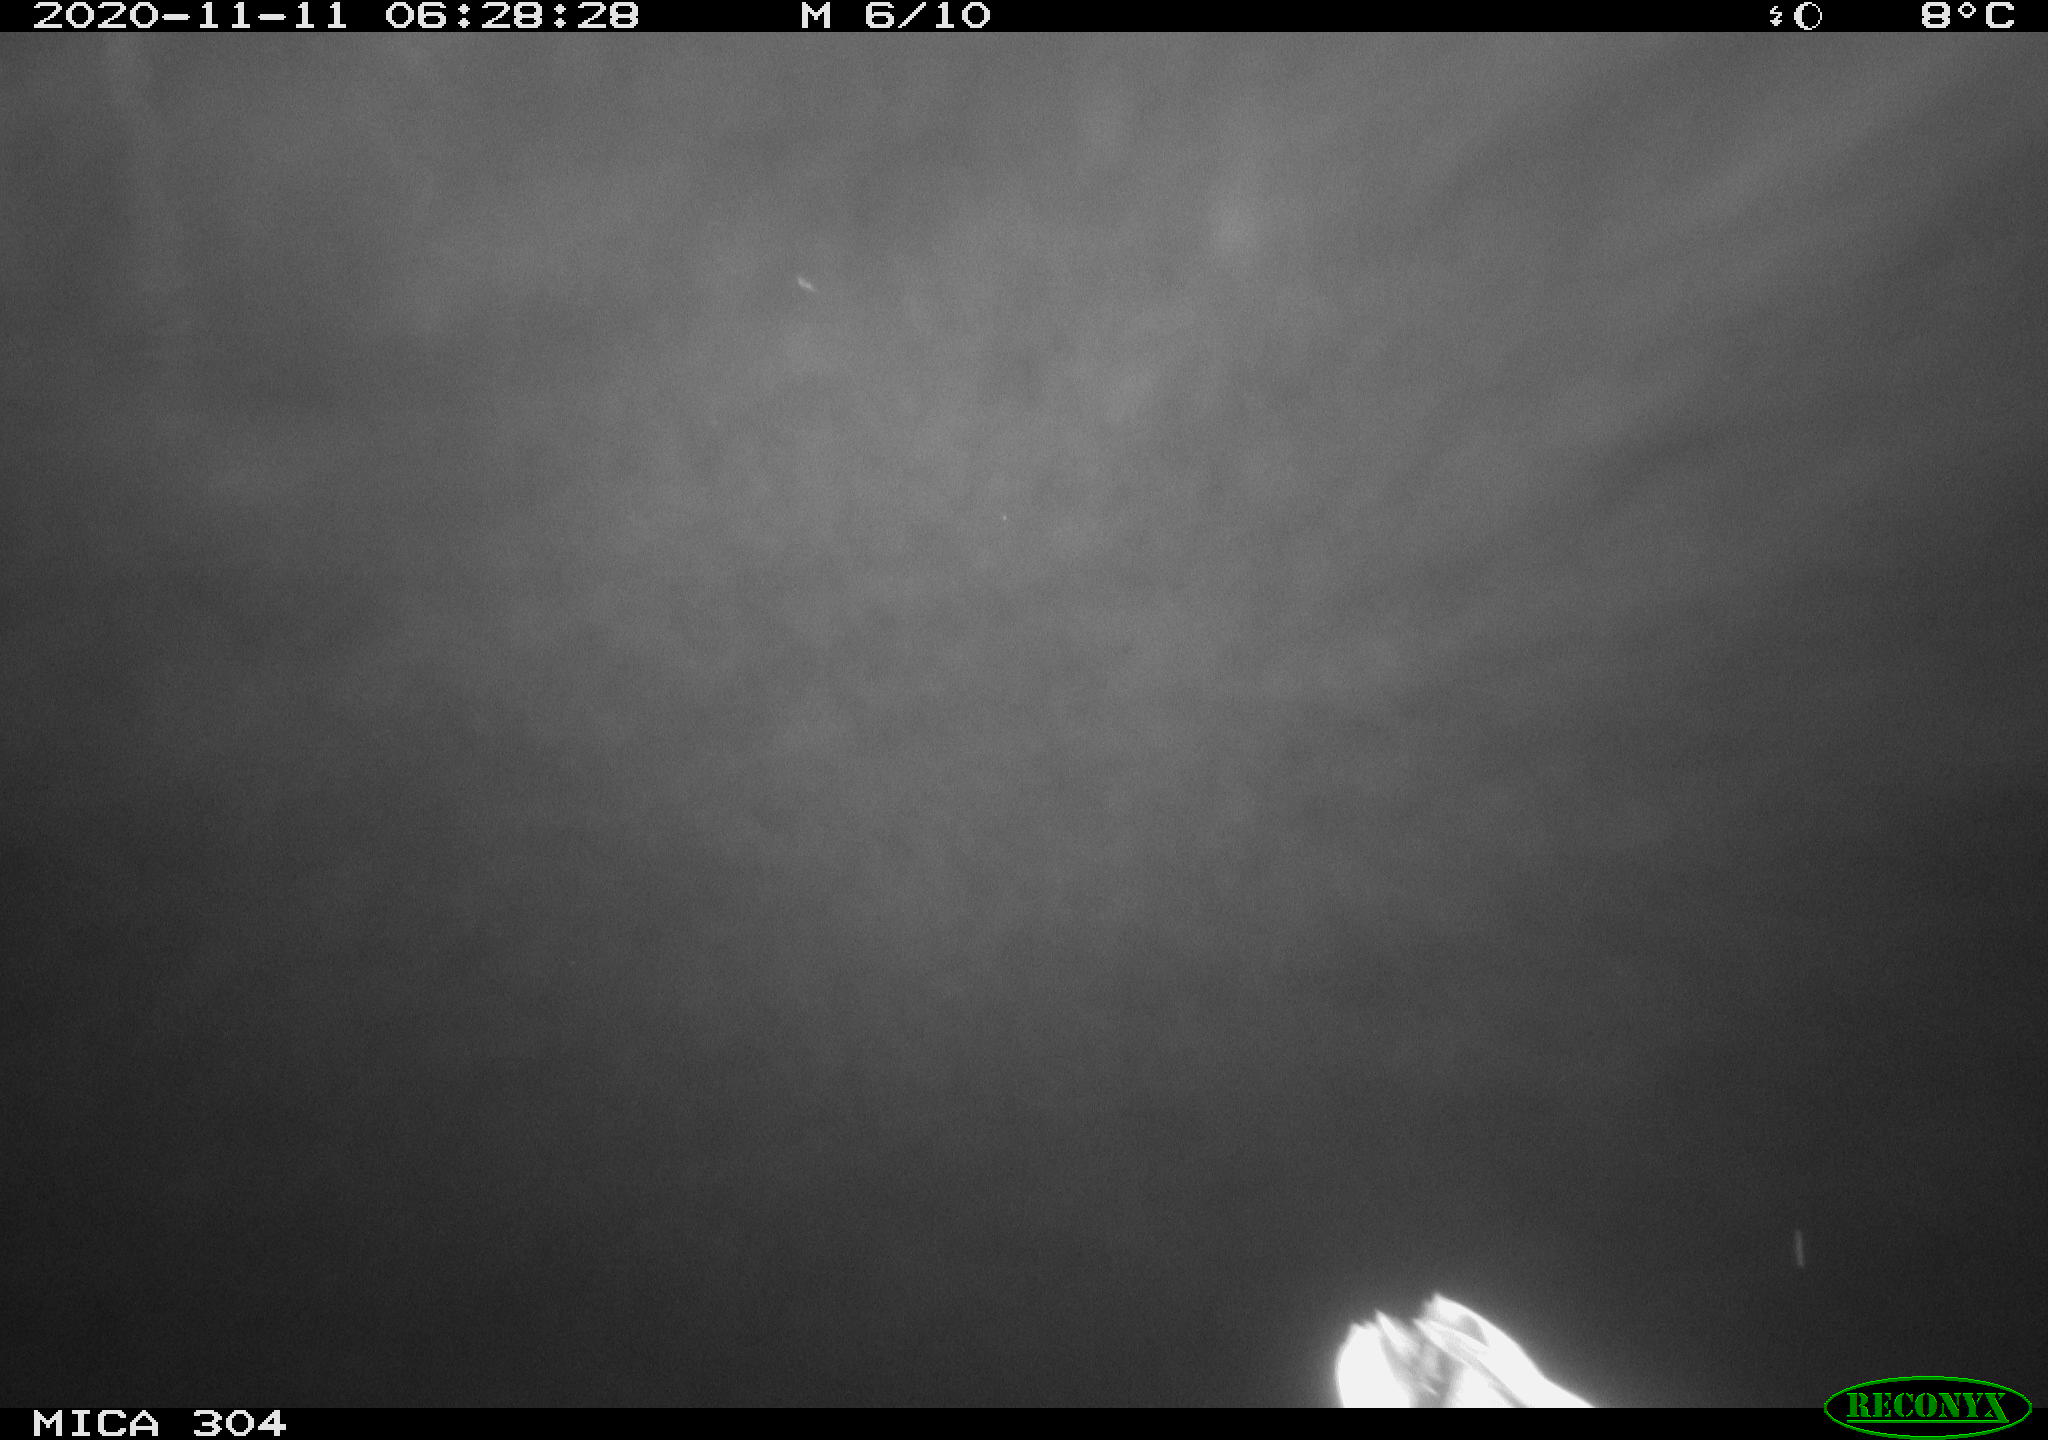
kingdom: Animalia
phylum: Chordata
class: Aves
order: Anseriformes
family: Anatidae
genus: Anas
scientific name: Anas platyrhynchos
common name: Mallard
